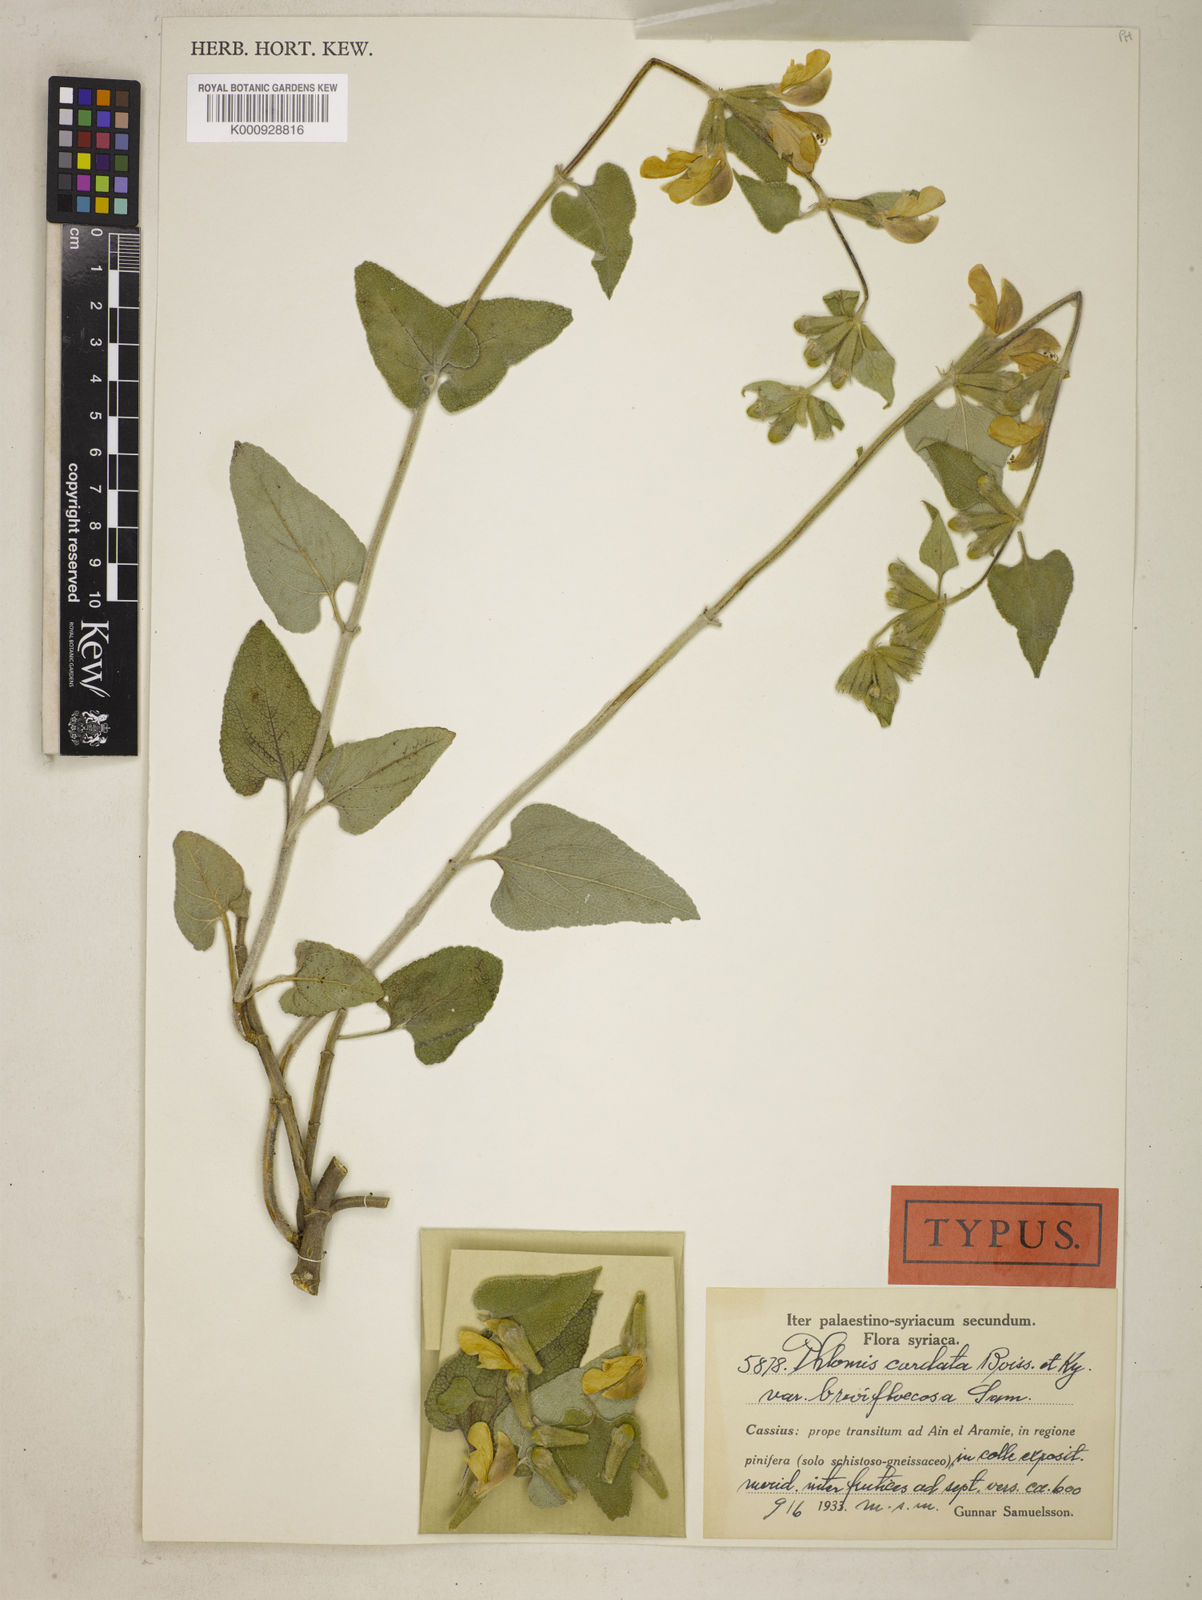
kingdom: Plantae
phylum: Tracheophyta
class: Magnoliopsida
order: Lamiales
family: Lamiaceae
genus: Phlomis
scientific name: Phlomis kotschyana
